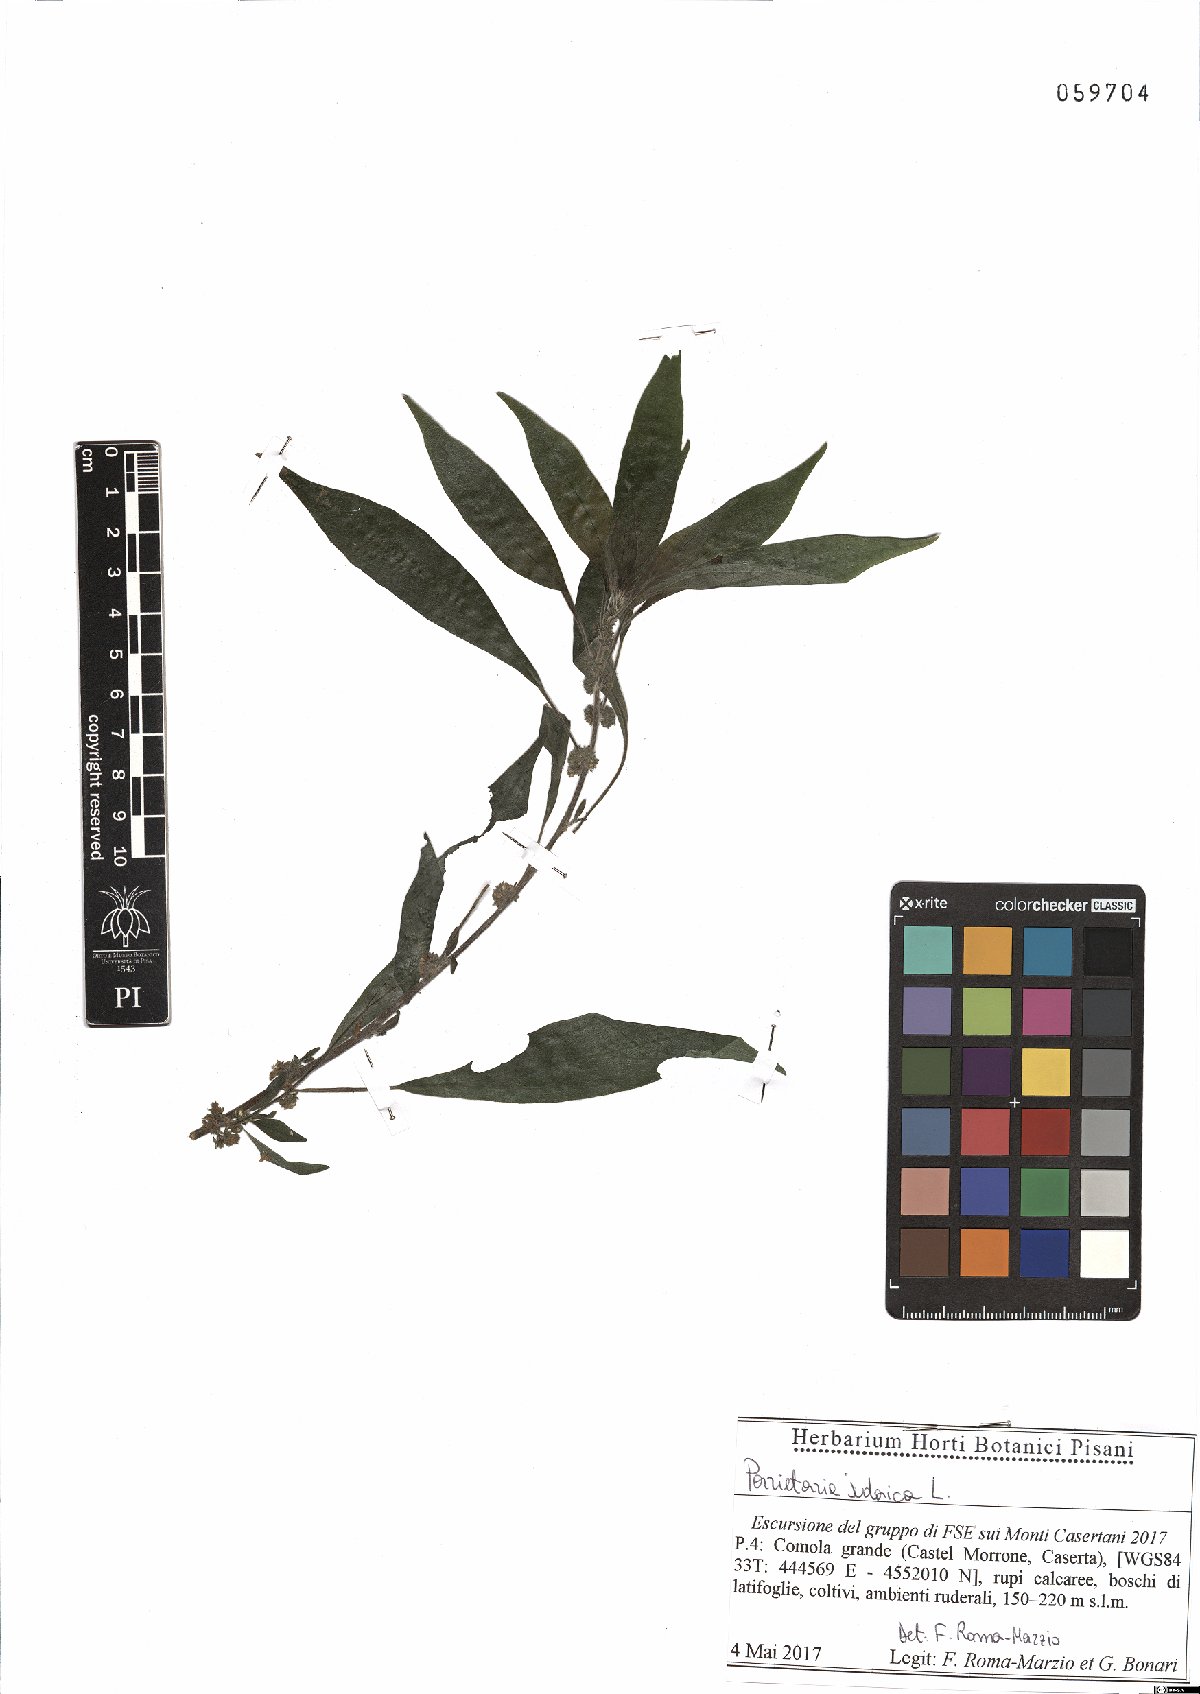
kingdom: Plantae
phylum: Tracheophyta
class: Magnoliopsida
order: Rosales
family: Urticaceae
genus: Parietaria
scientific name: Parietaria judaica
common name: Pellitory-of-the-wall
